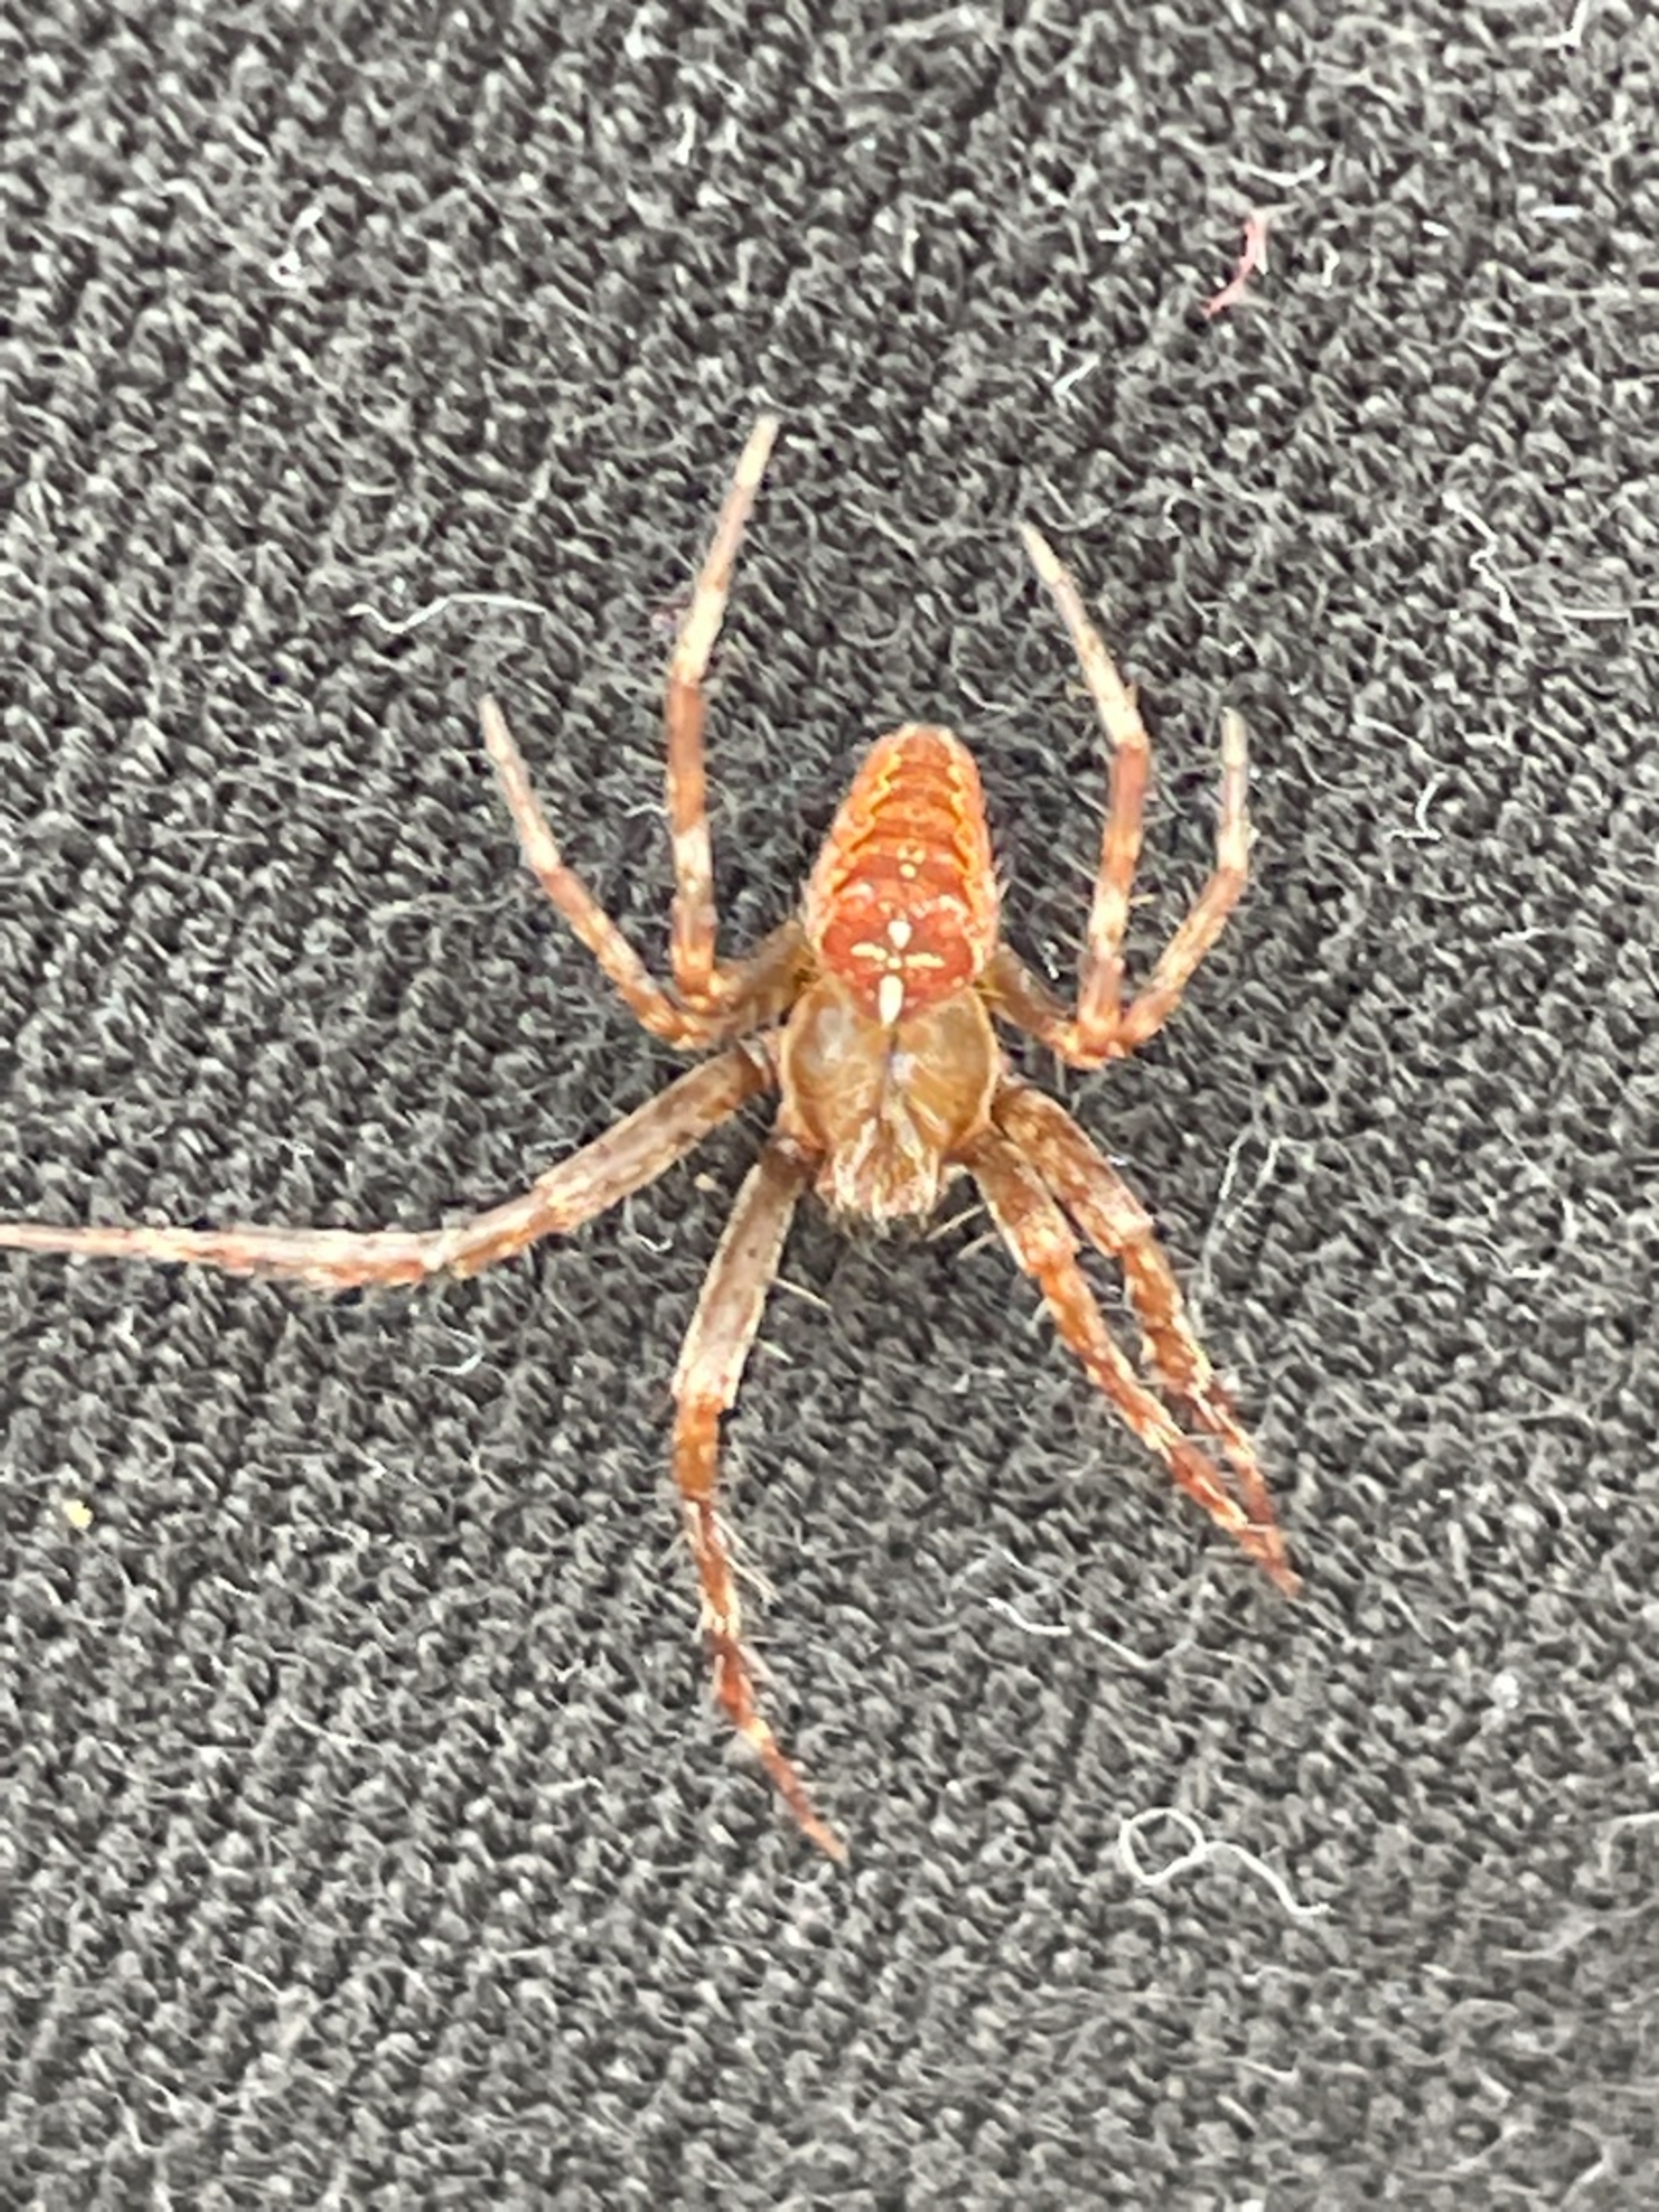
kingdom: Animalia
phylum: Arthropoda
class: Arachnida
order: Araneae
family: Araneidae
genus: Araneus
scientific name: Araneus diadematus
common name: Korsedderkop
